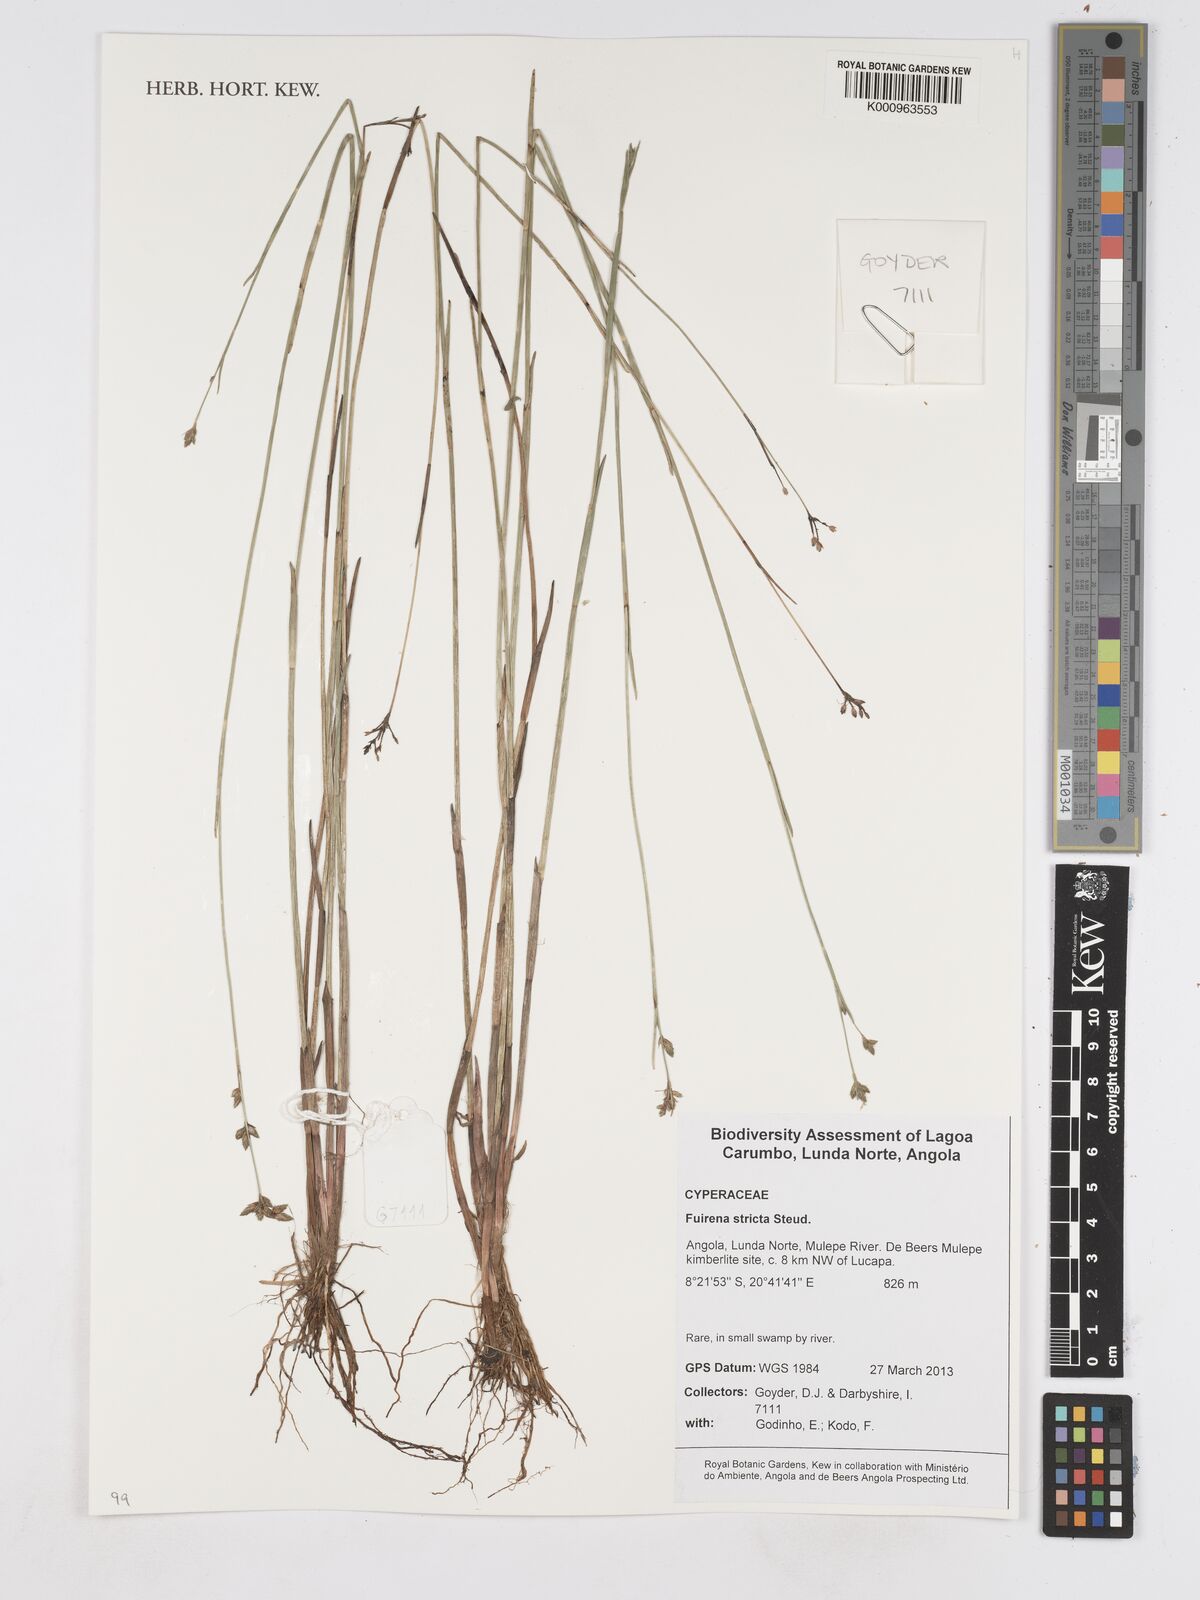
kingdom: Plantae
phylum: Tracheophyta
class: Liliopsida
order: Poales
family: Cyperaceae
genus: Fuirena
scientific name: Fuirena stricta
